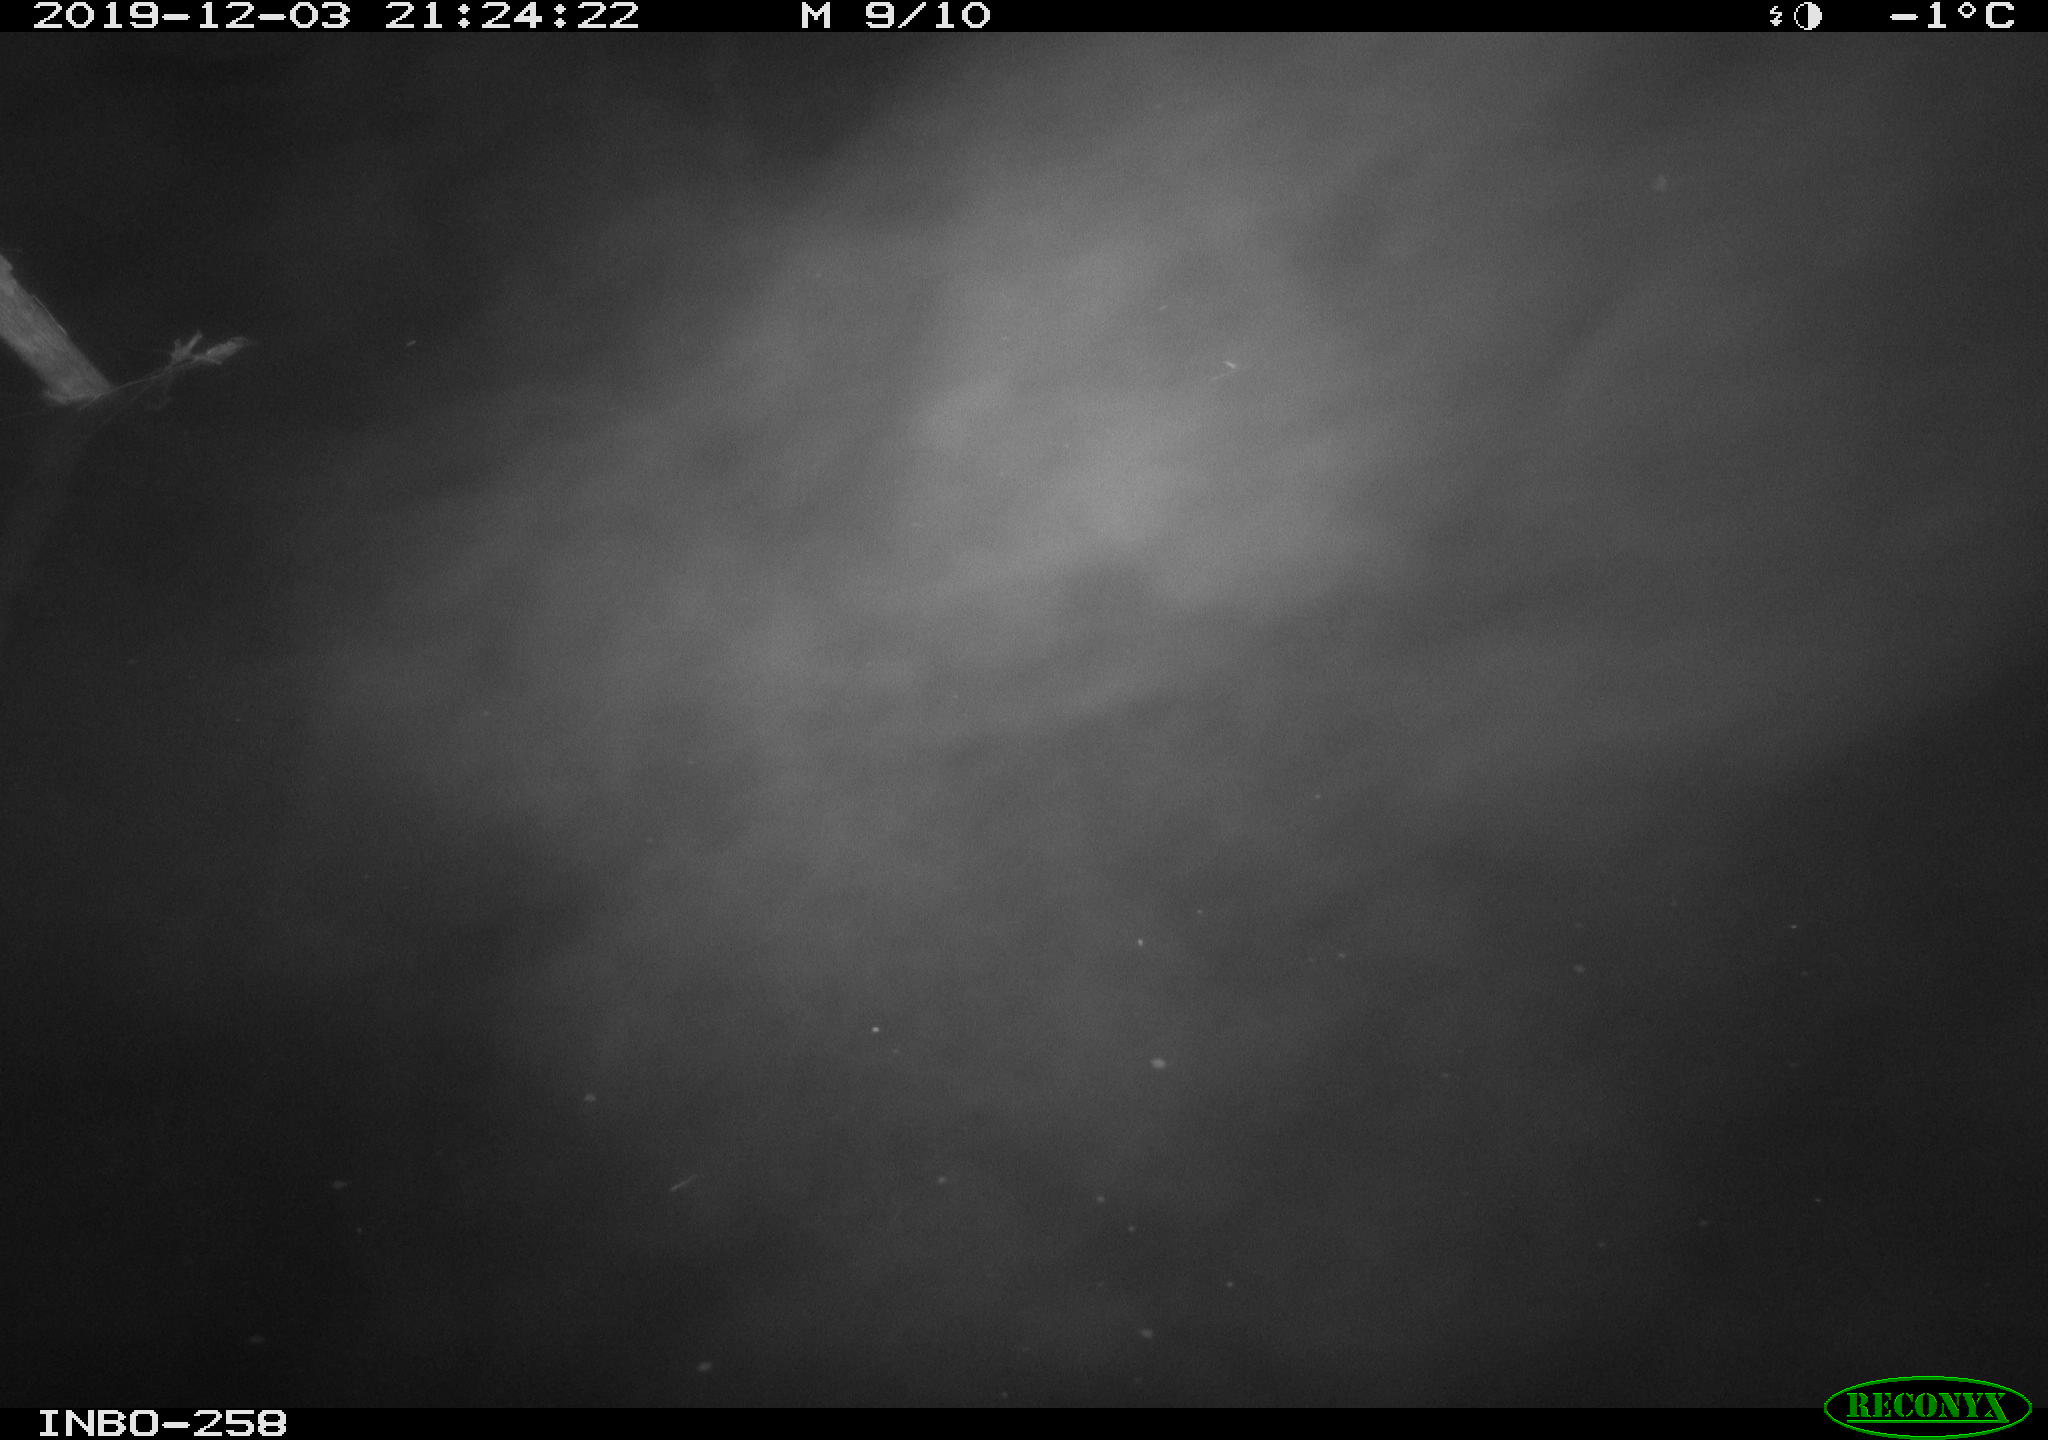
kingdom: Animalia
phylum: Chordata
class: Aves
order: Anseriformes
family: Anatidae
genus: Anas
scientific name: Anas platyrhynchos
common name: Mallard
